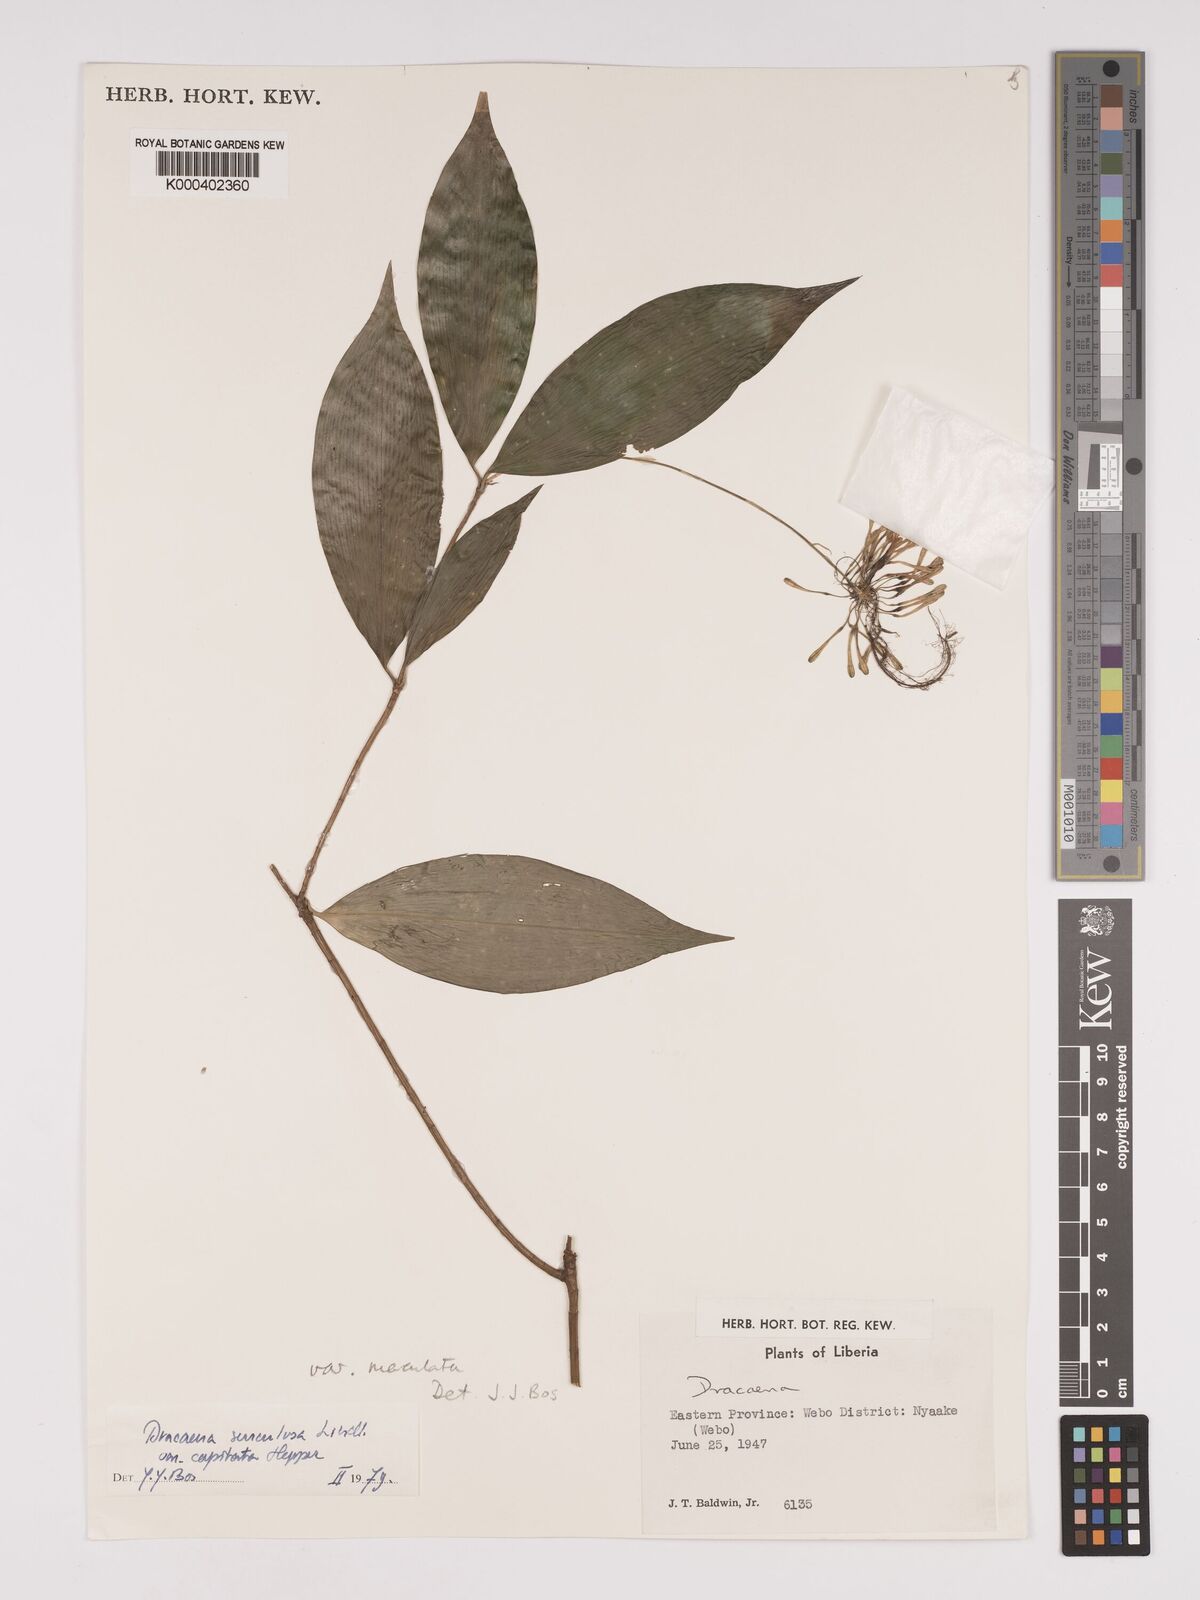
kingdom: Plantae
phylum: Tracheophyta
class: Liliopsida
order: Asparagales
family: Asparagaceae
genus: Dracaena
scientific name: Dracaena surculosa
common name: Spotted dracaena
